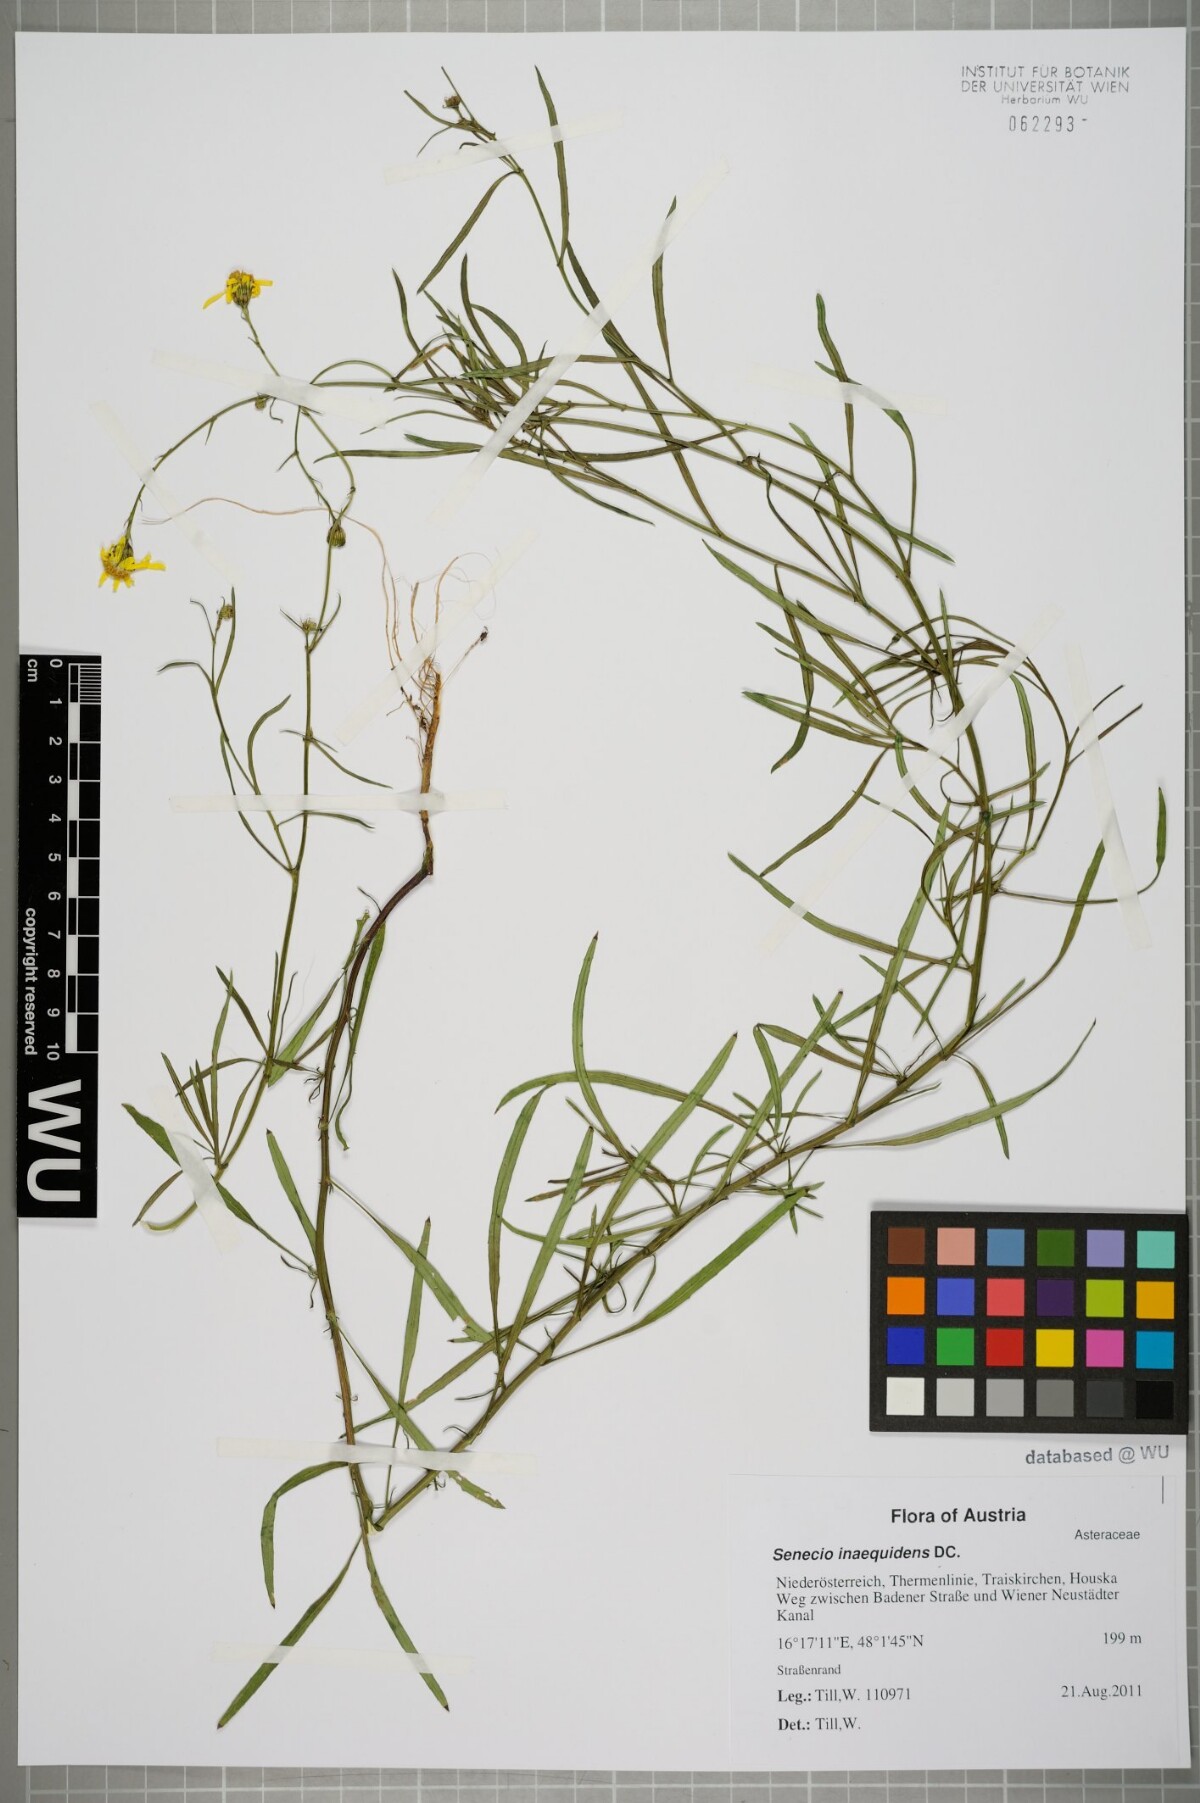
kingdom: Plantae
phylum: Tracheophyta
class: Magnoliopsida
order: Asterales
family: Asteraceae
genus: Senecio
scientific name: Senecio inaequidens
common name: Narrow-leaved ragwort
